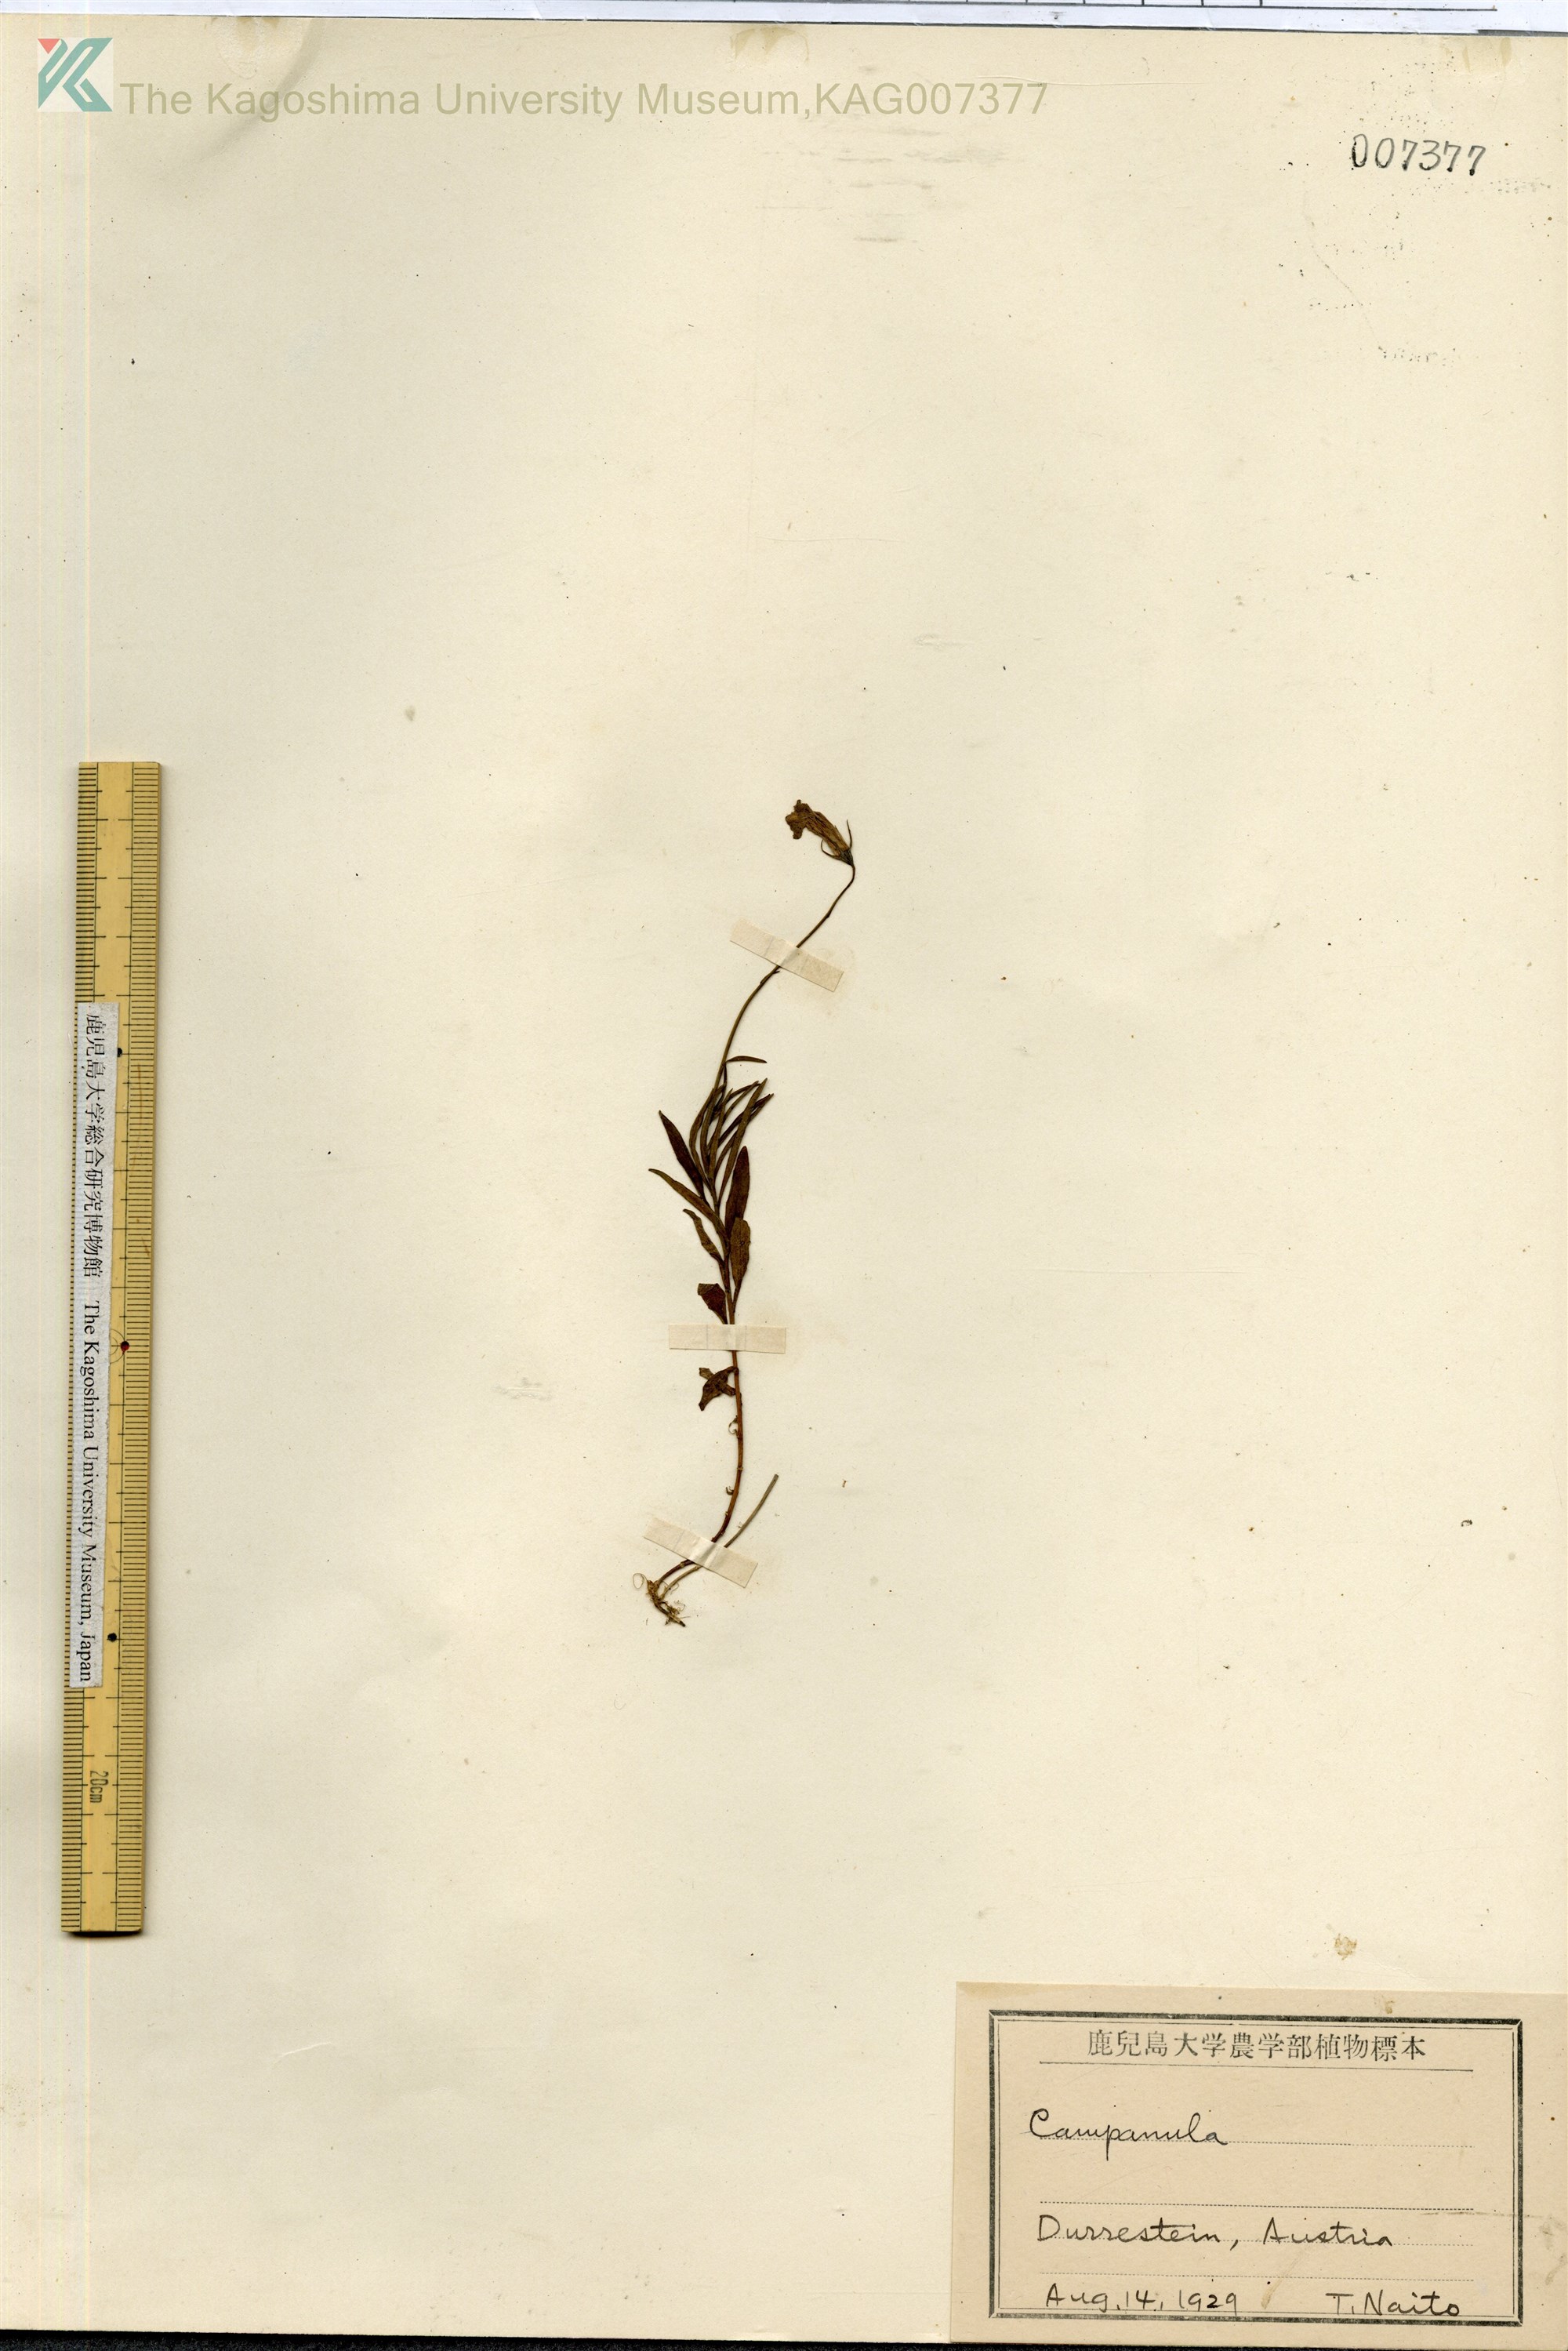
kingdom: Plantae
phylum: Tracheophyta
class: Magnoliopsida
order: Asterales
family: Campanulaceae
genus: Campanula
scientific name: Campanula
